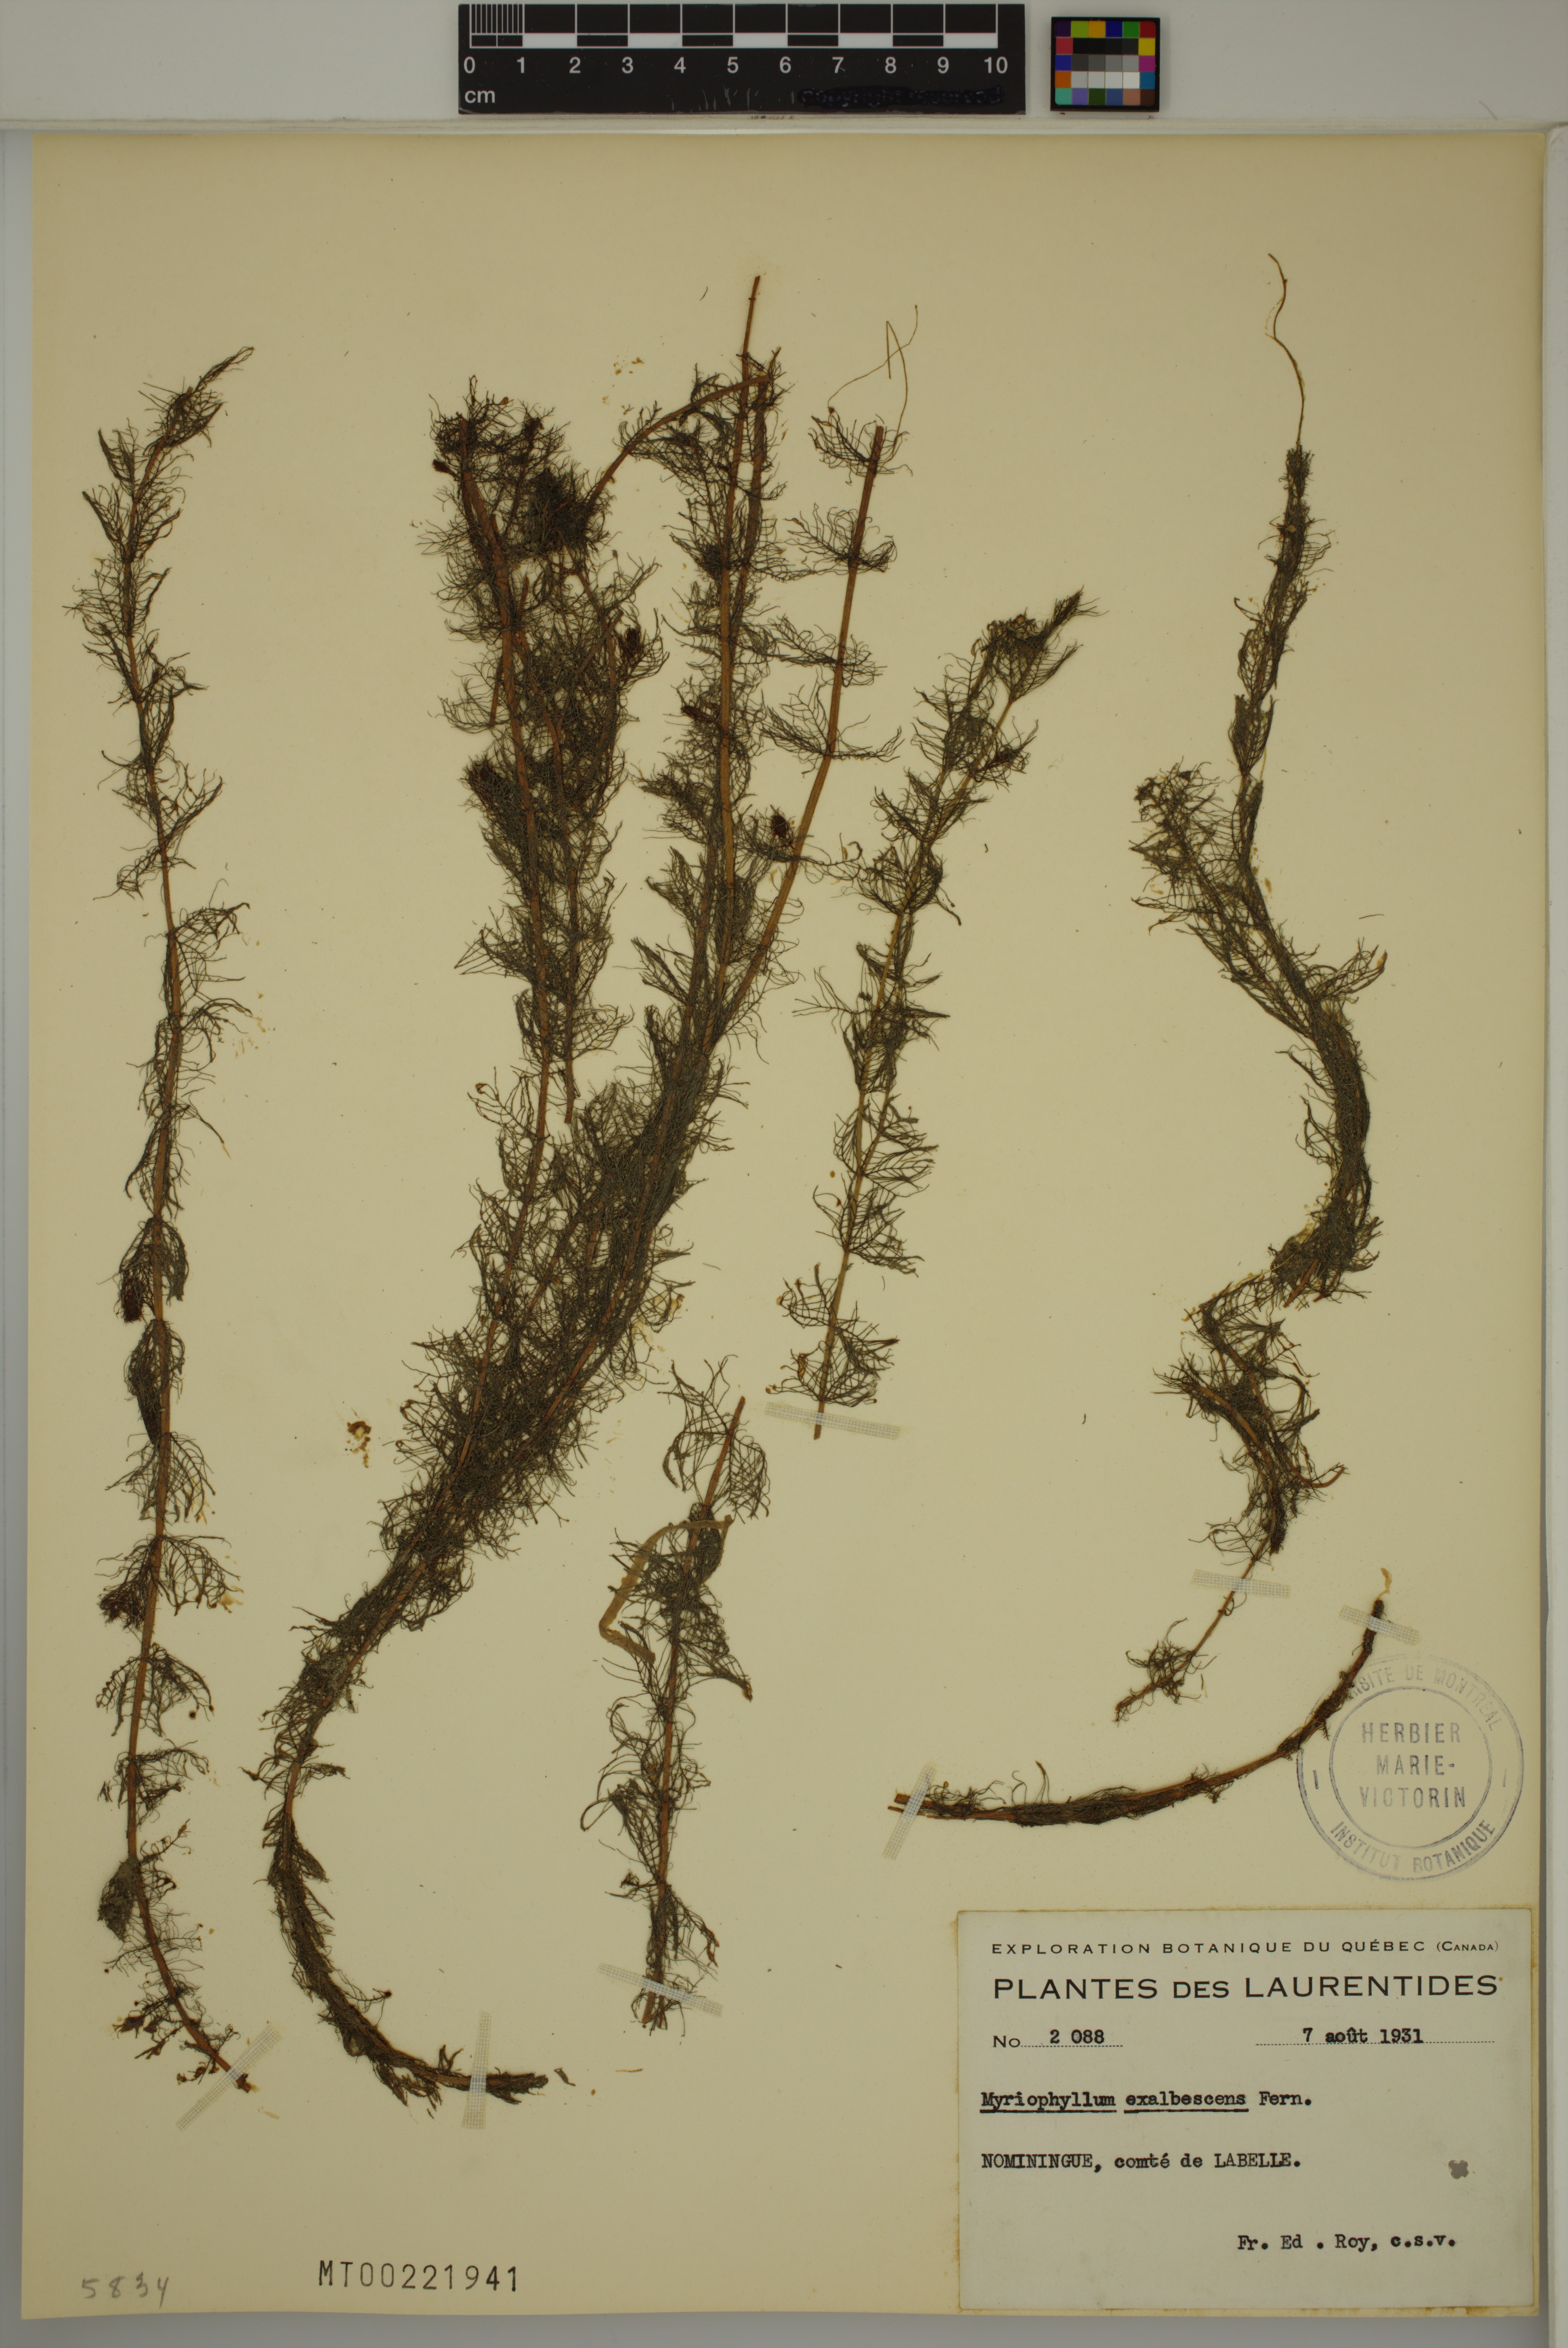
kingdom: Plantae
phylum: Tracheophyta
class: Magnoliopsida
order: Saxifragales
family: Haloragaceae
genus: Myriophyllum
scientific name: Myriophyllum sibiricum
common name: Siberian water-milfoil
